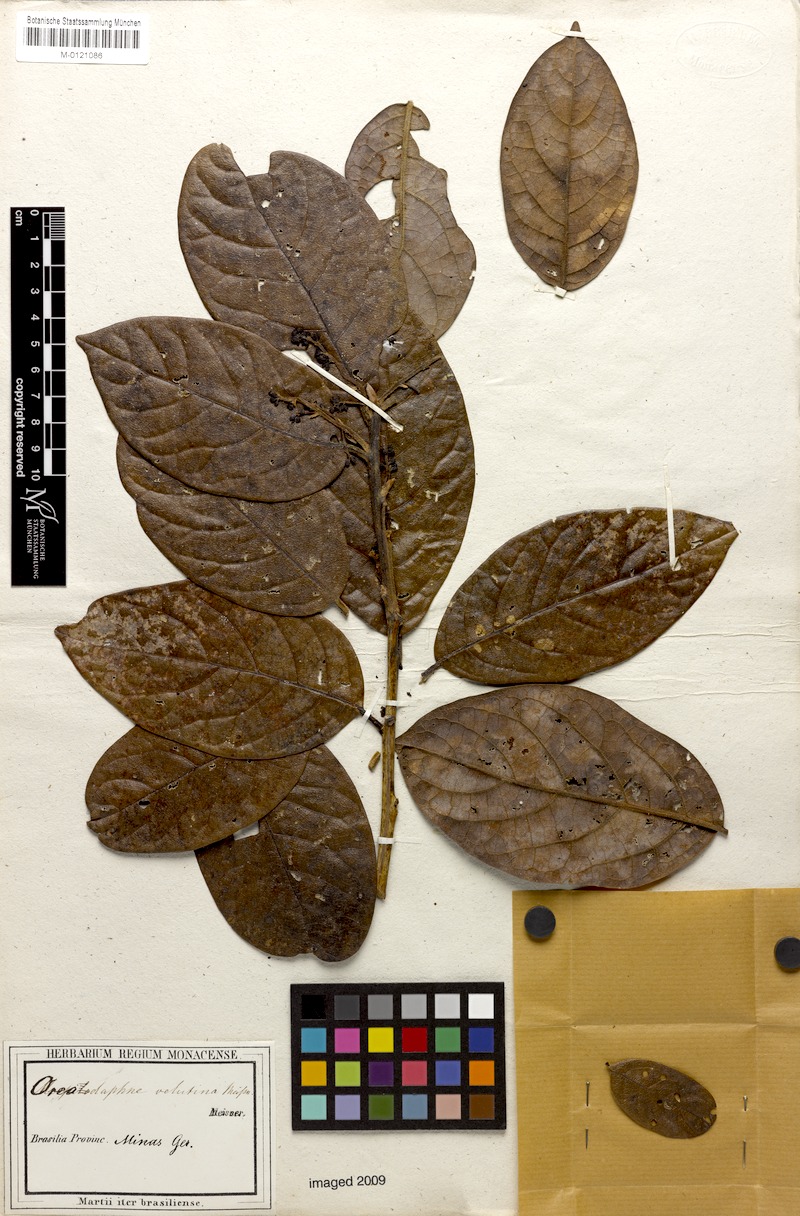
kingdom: Plantae
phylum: Tracheophyta
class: Magnoliopsida
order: Laurales
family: Lauraceae
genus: Andea
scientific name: Andea velutina
